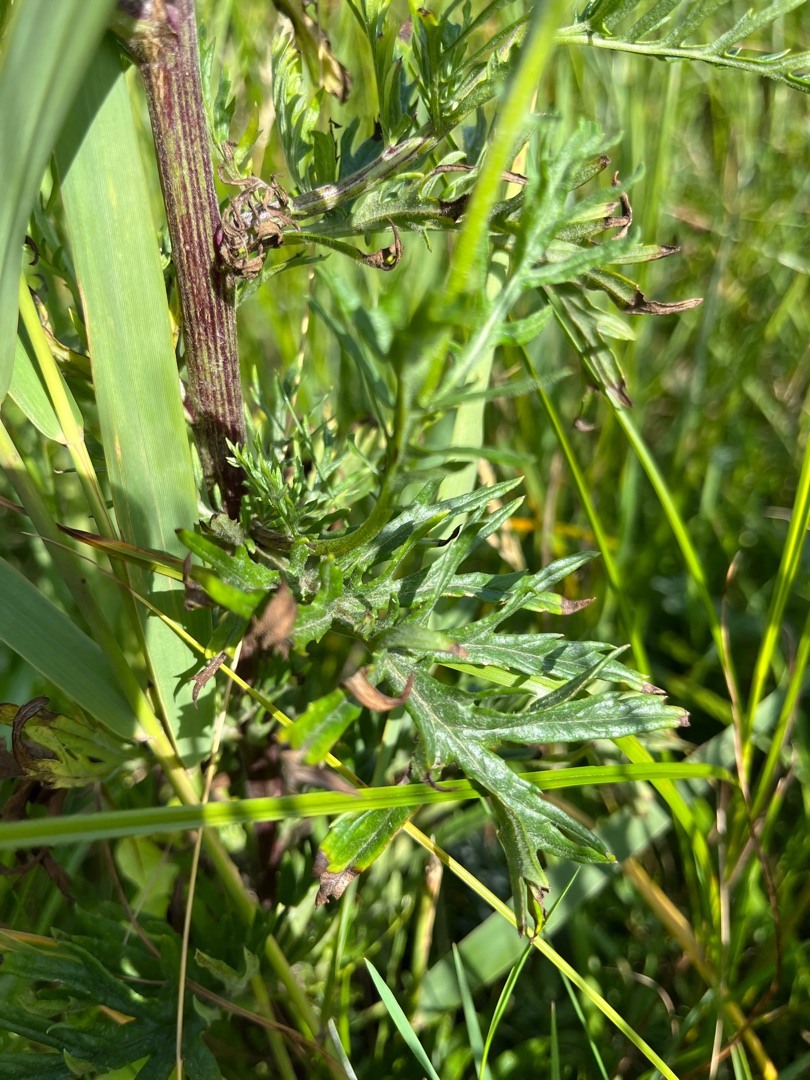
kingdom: Plantae
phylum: Tracheophyta
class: Magnoliopsida
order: Asterales
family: Asteraceae
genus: Jacobaea
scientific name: Jacobaea erucifolia
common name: Smalfliget brandbæger
